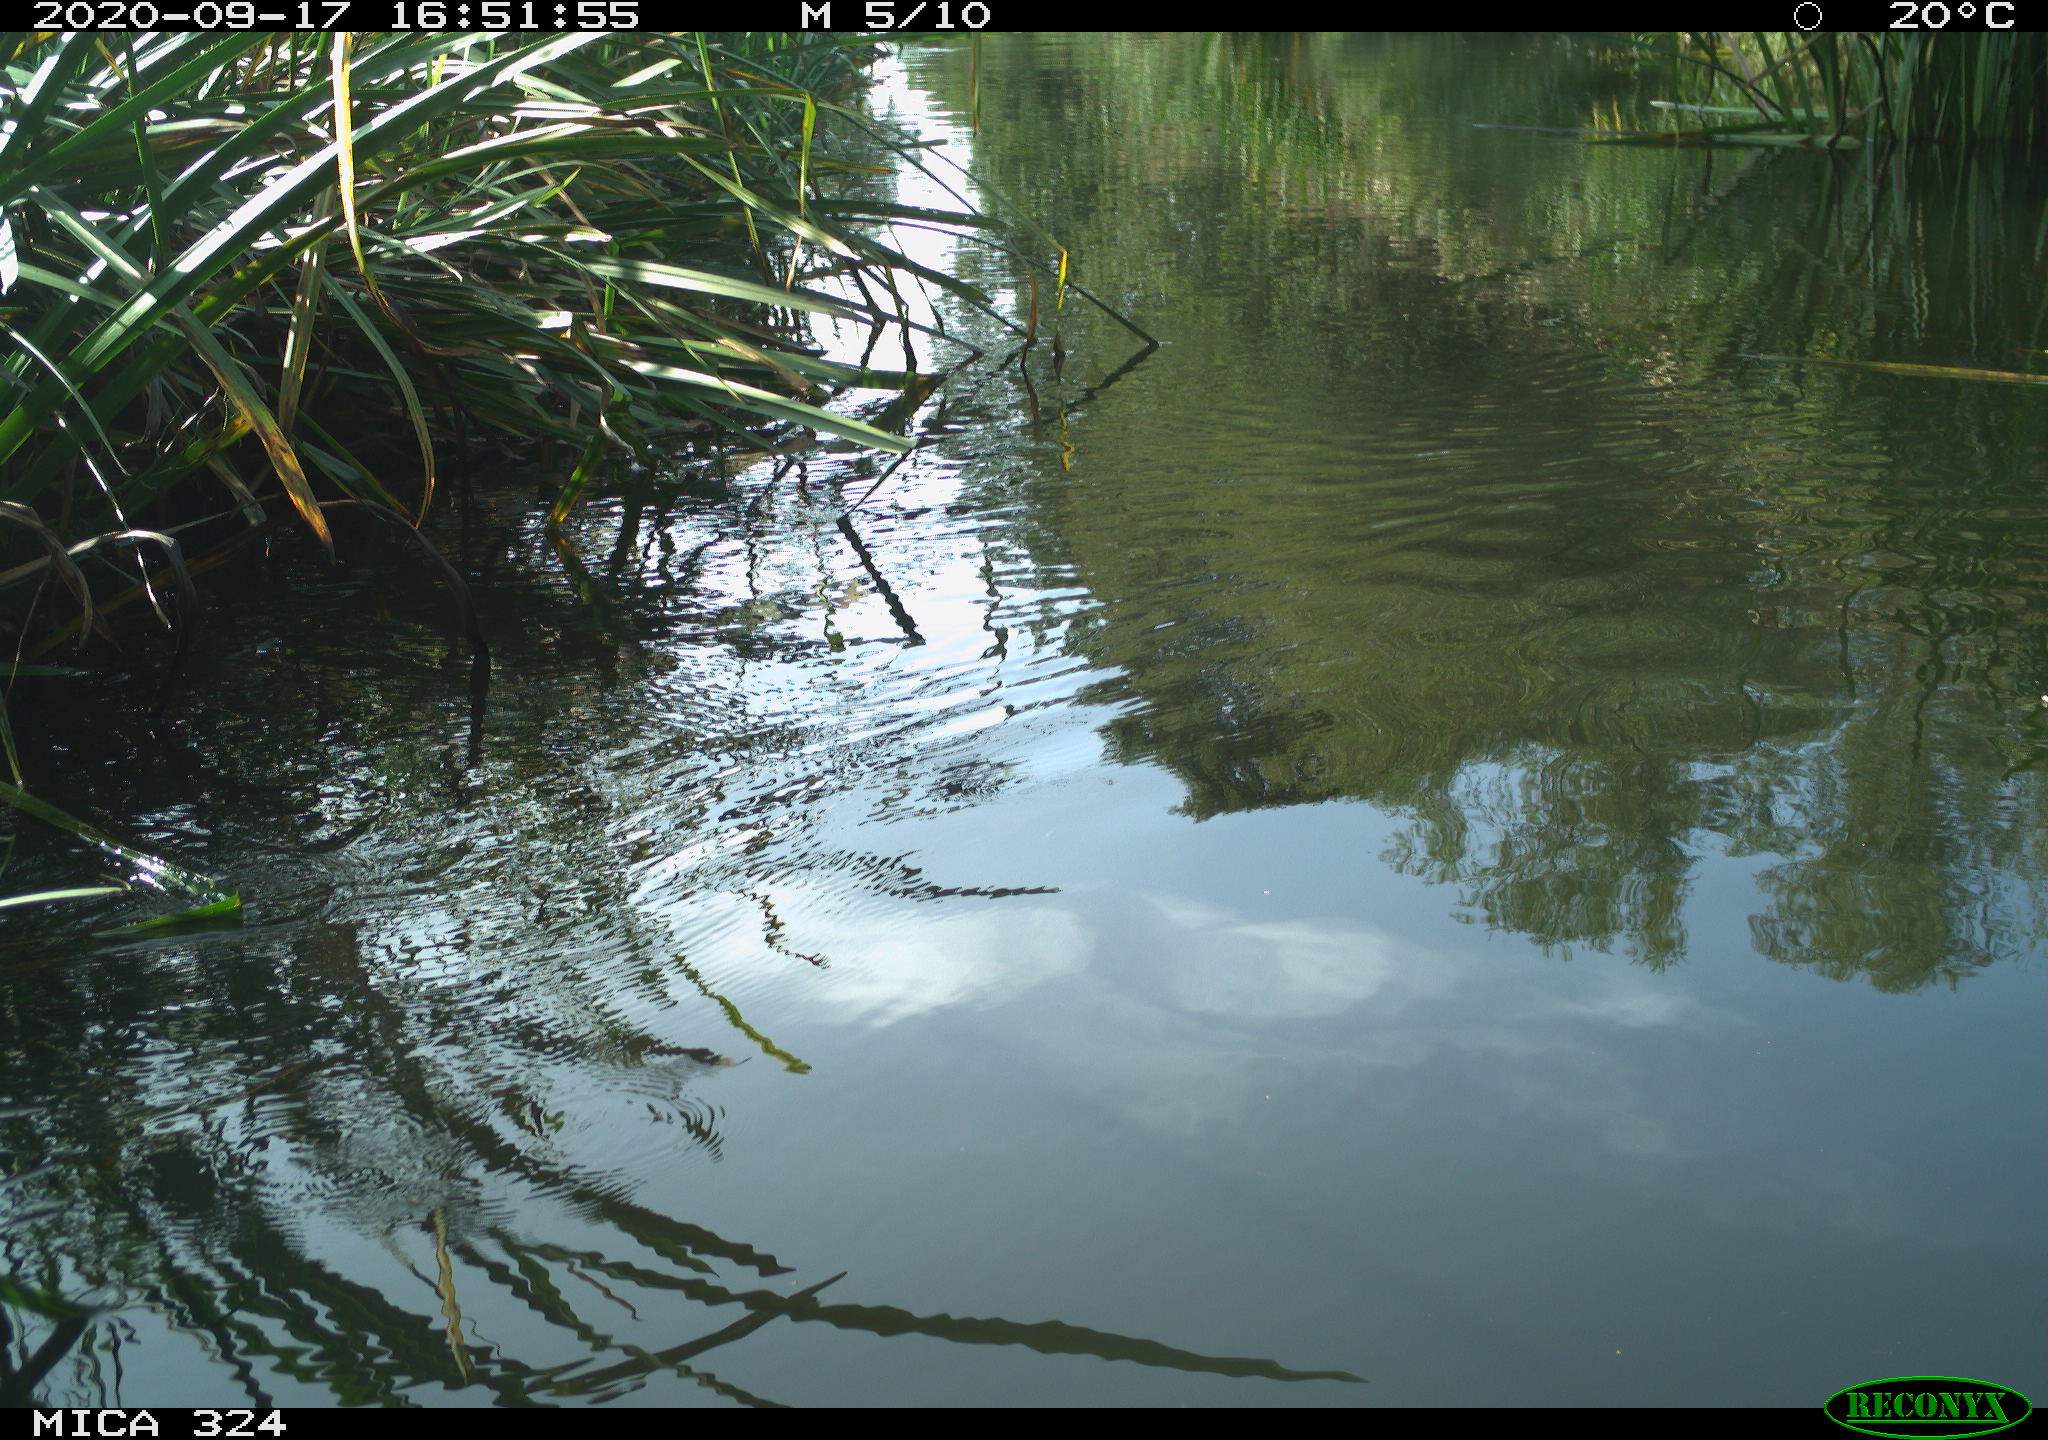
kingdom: Animalia
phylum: Chordata
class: Aves
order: Gruiformes
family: Rallidae
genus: Gallinula
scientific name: Gallinula chloropus
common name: Common moorhen
